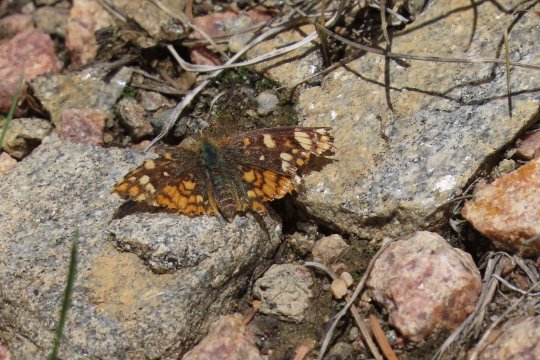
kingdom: Animalia
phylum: Arthropoda
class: Insecta
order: Lepidoptera
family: Nymphalidae
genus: Phyciodes
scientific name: Phyciodes tharos
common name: Field Crescent
